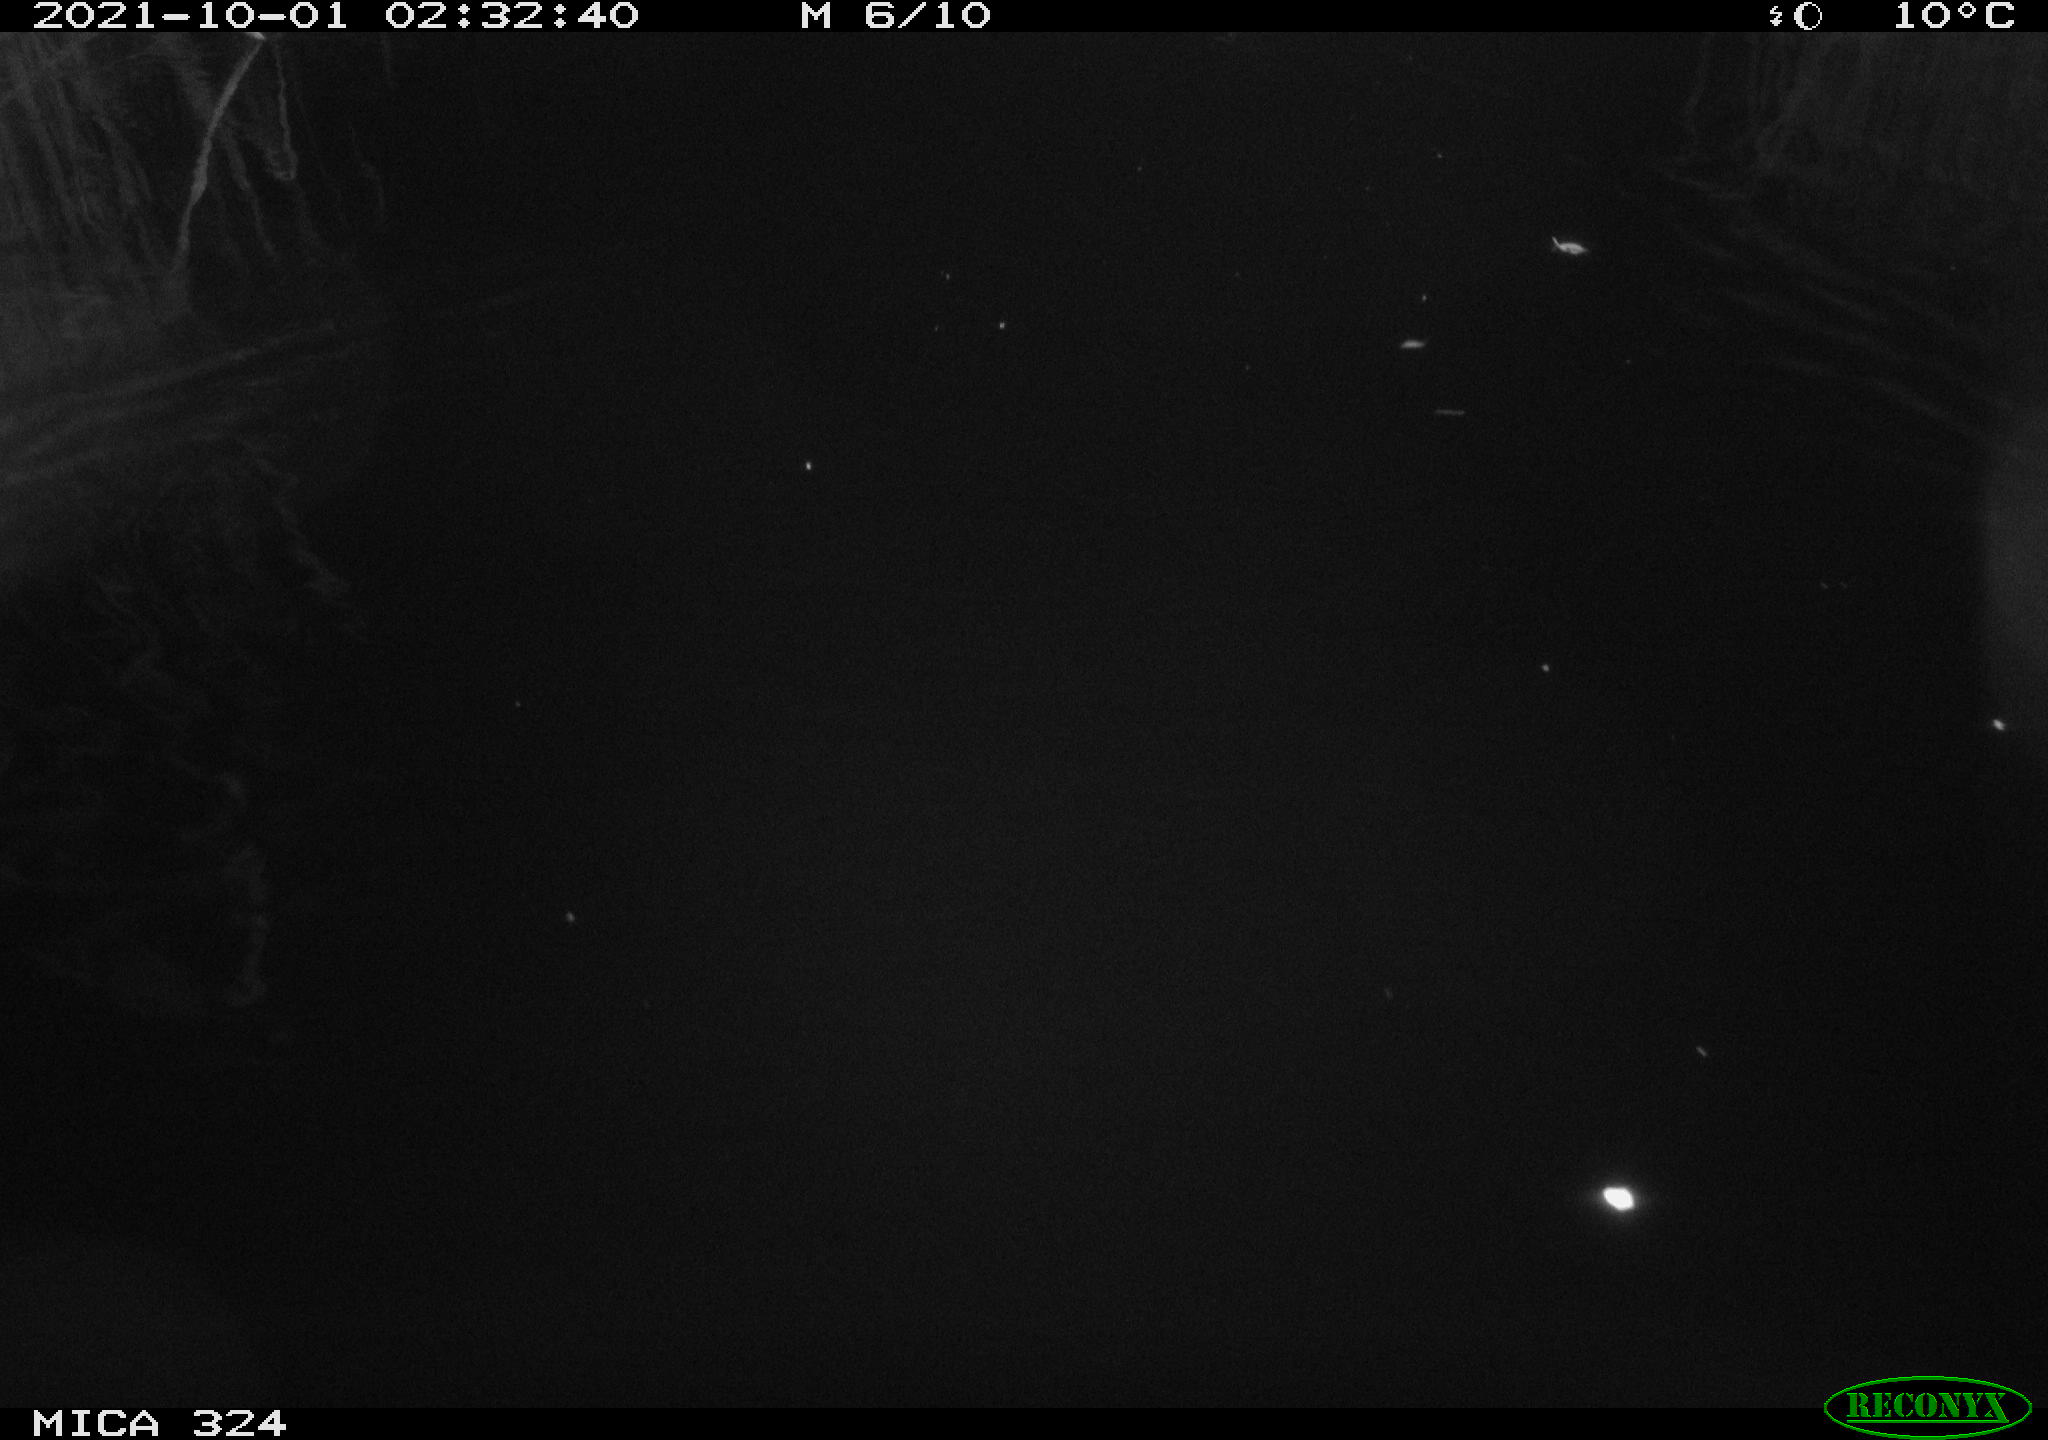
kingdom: Animalia
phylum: Chordata
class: Mammalia
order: Rodentia
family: Cricetidae
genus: Ondatra
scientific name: Ondatra zibethicus
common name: Muskrat
